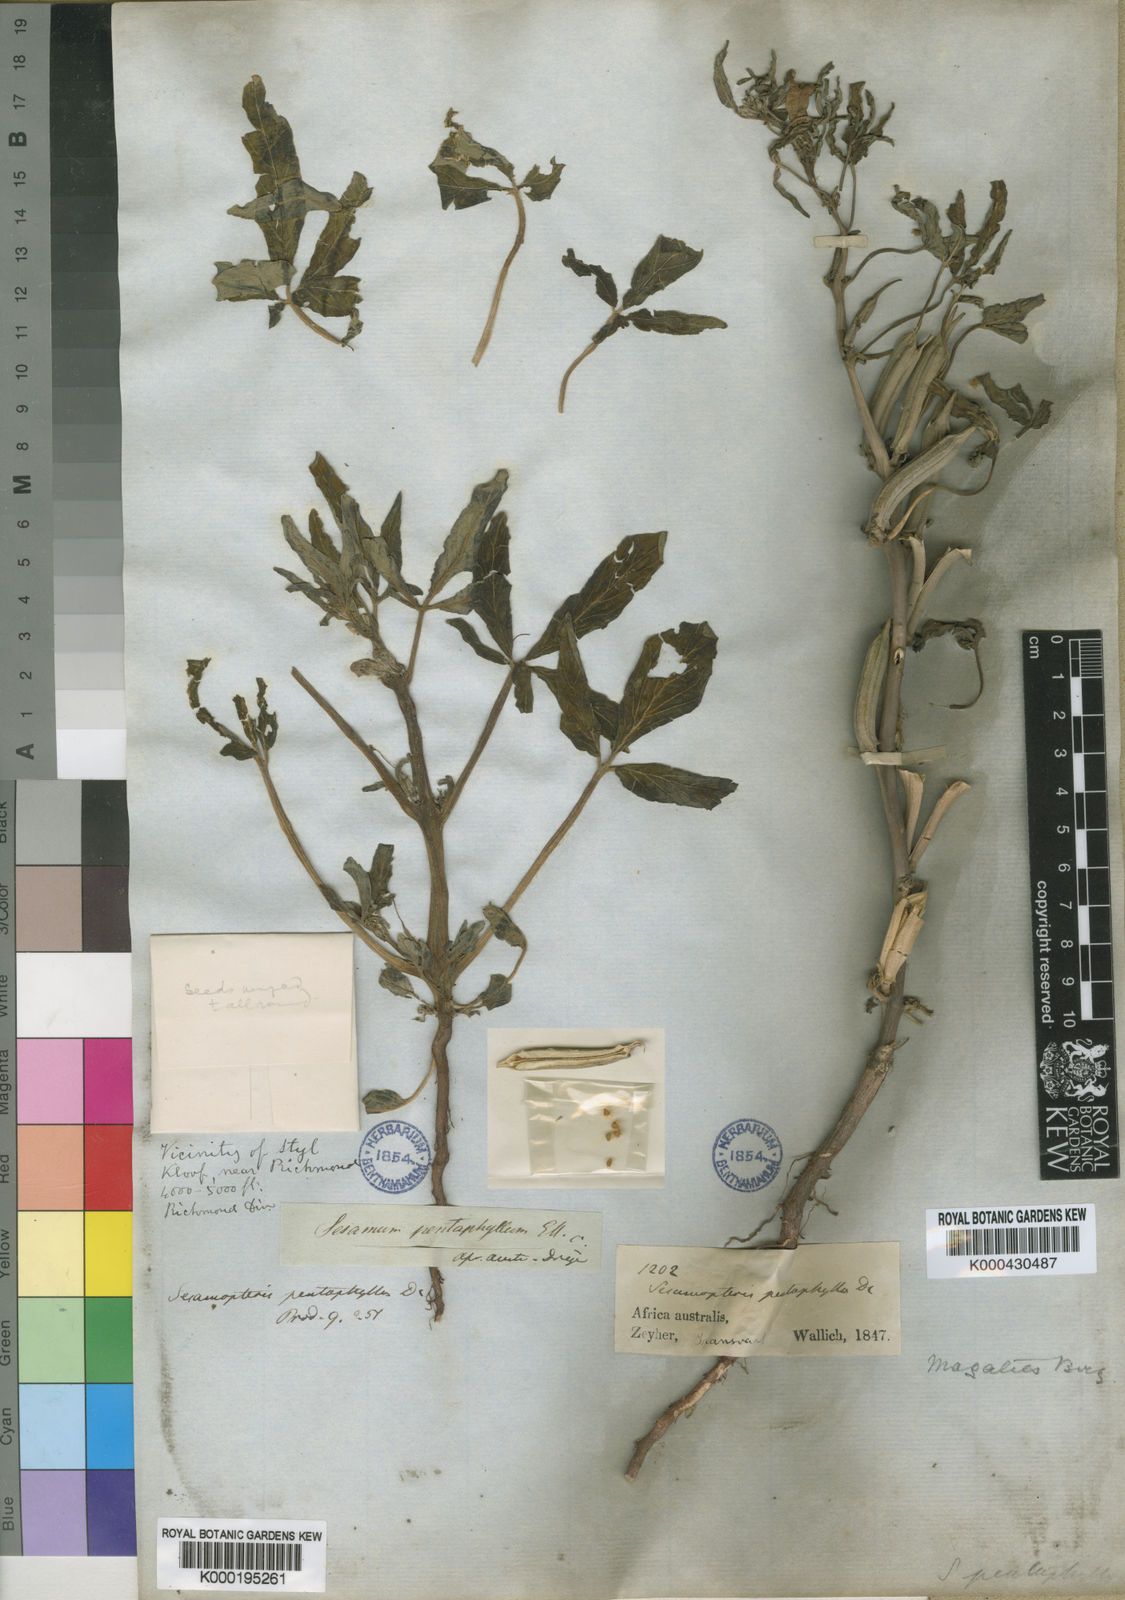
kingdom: Plantae
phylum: Tracheophyta
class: Magnoliopsida
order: Lamiales
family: Pedaliaceae
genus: Sesamum
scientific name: Sesamum capense
